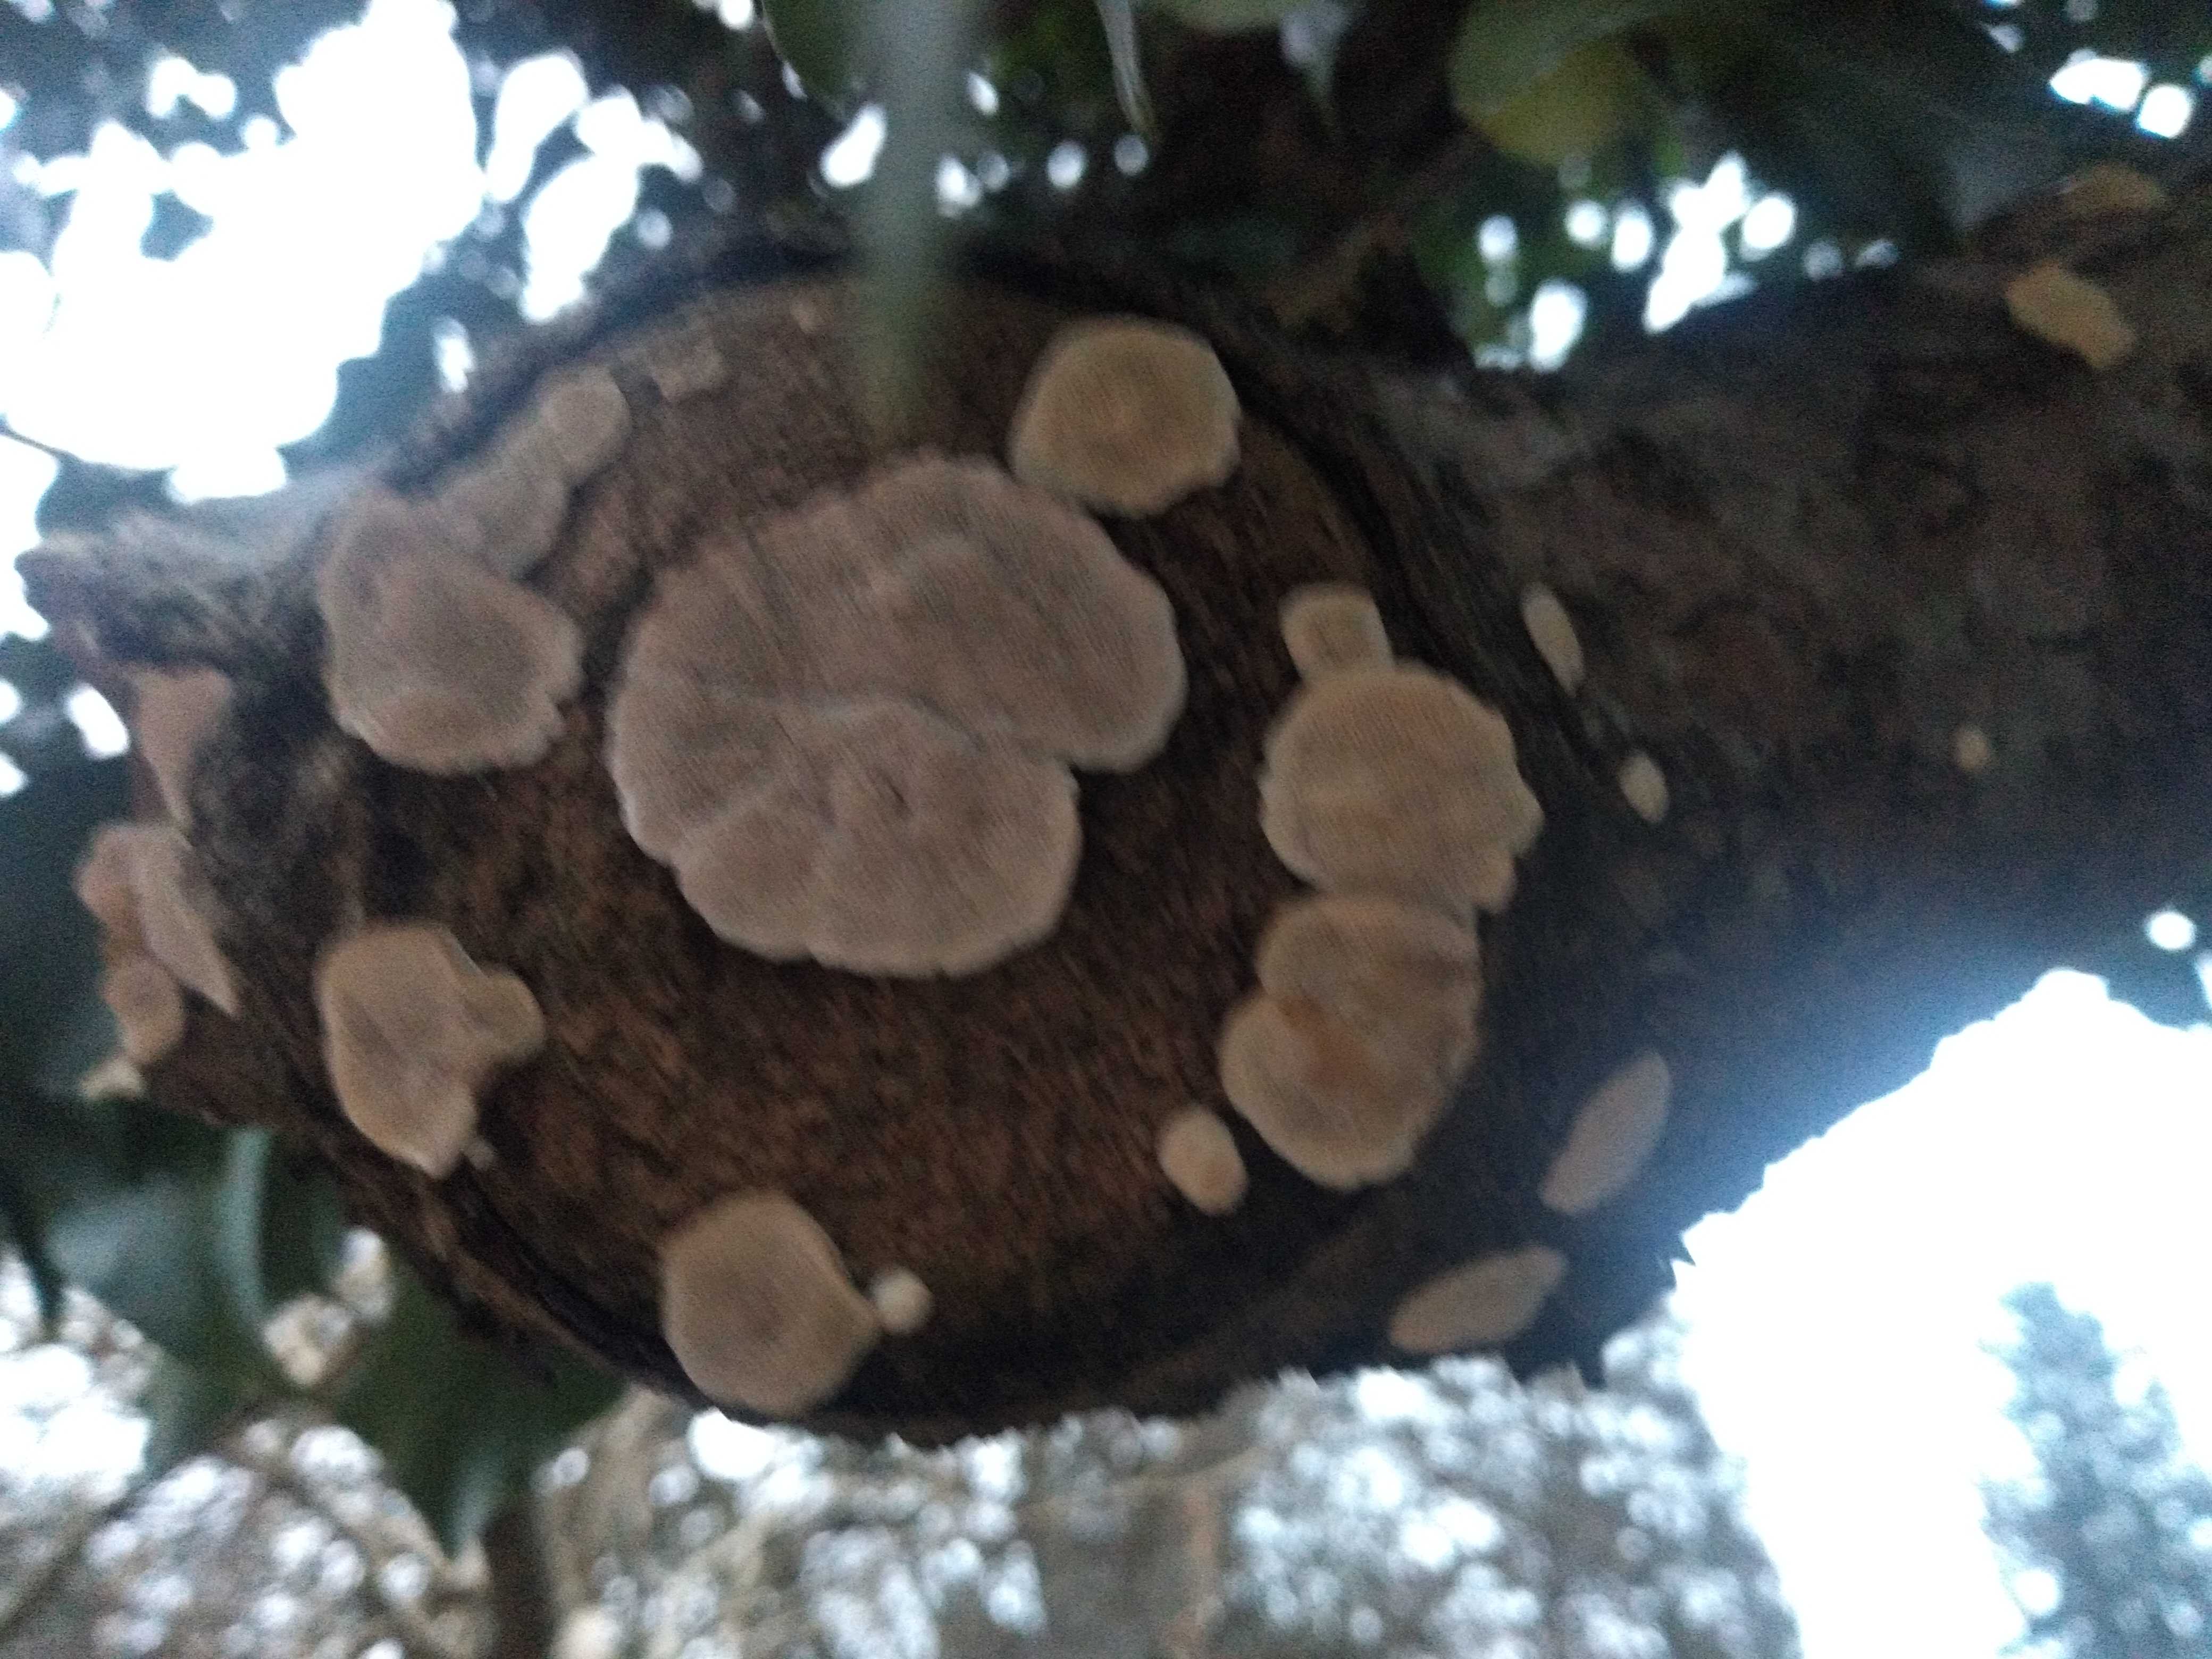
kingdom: Fungi
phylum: Basidiomycota
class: Agaricomycetes
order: Polyporales
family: Polyporaceae
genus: Trametes
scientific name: Trametes
